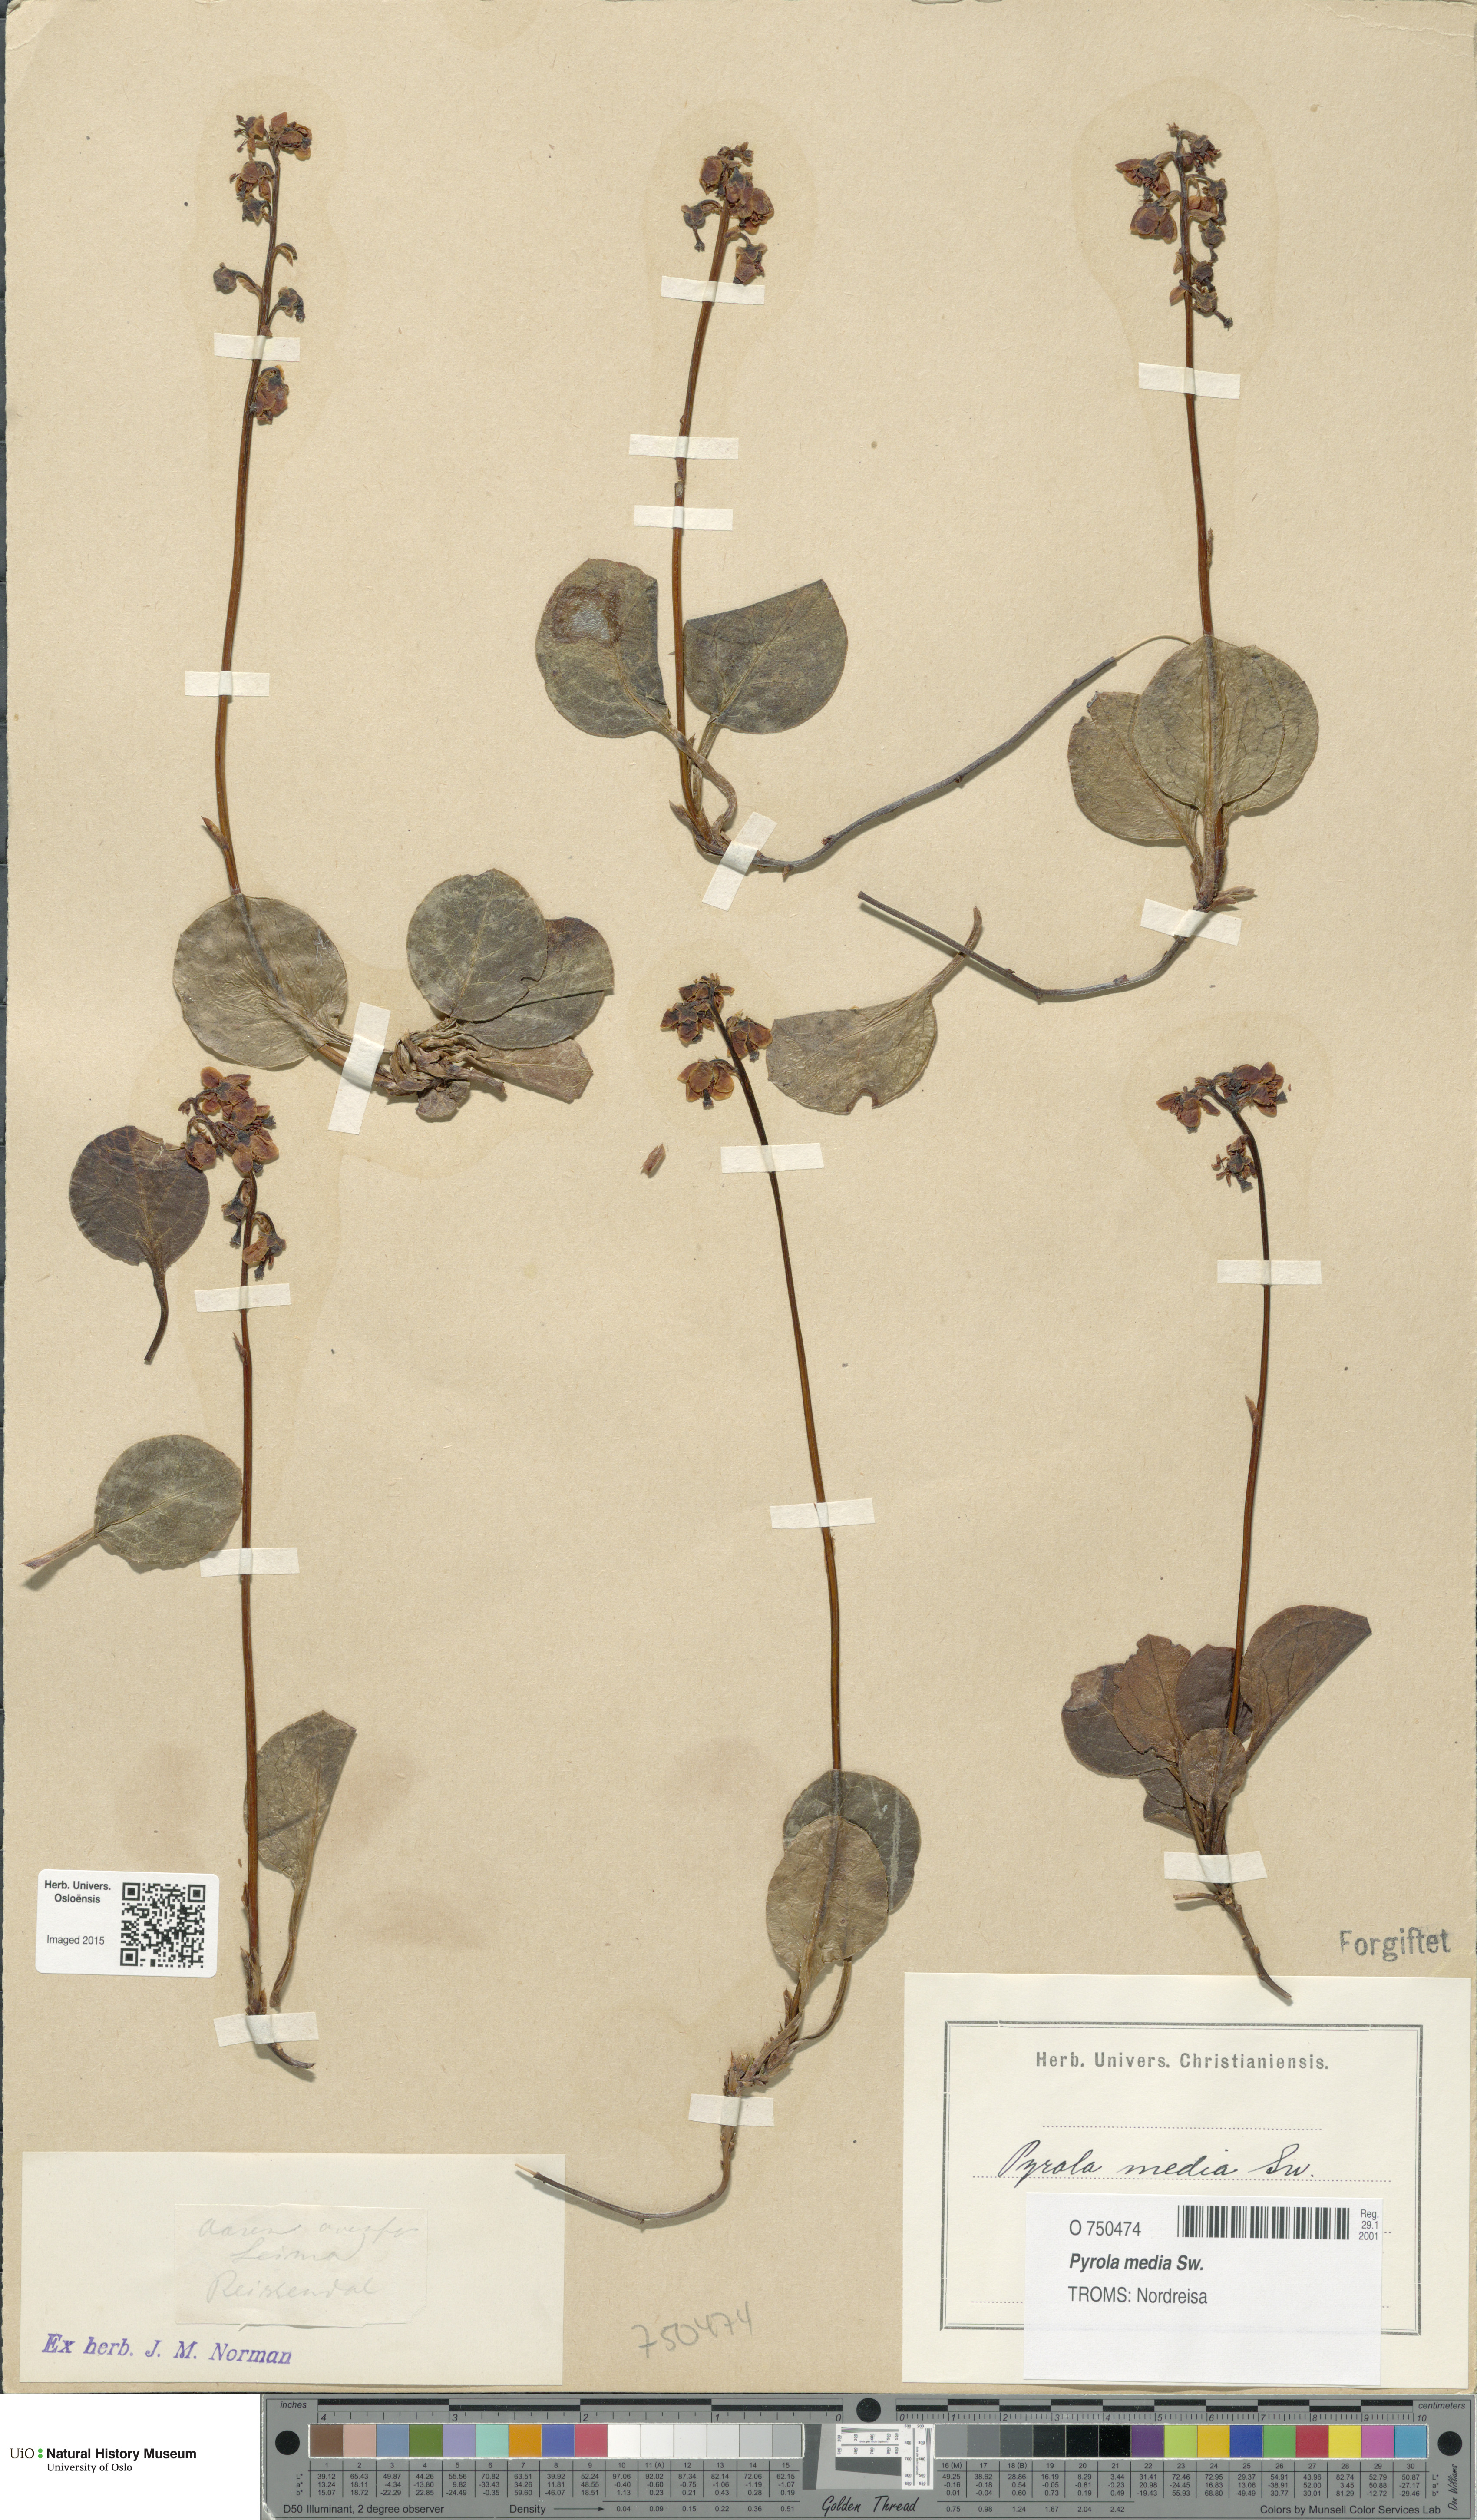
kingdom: Plantae
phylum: Tracheophyta
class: Magnoliopsida
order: Ericales
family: Ericaceae
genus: Pyrola
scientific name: Pyrola media
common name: Intermediate wintergreen
